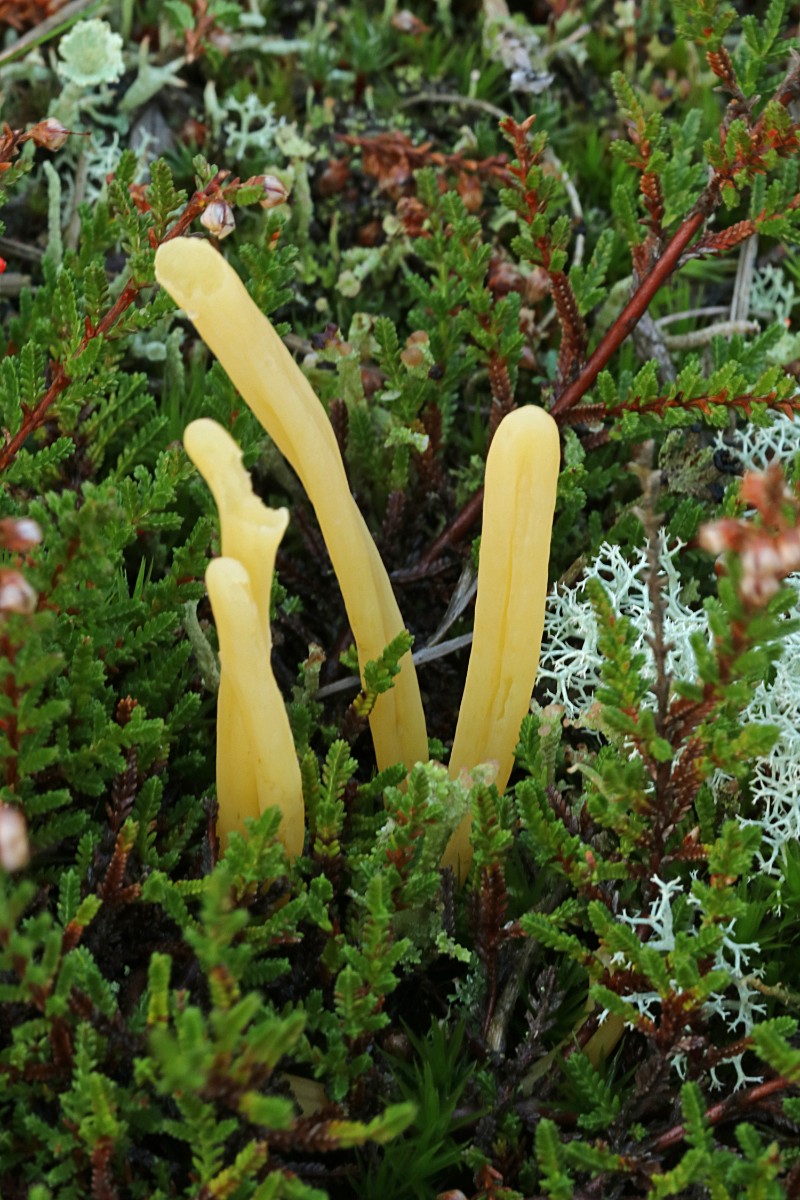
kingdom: Fungi
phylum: Basidiomycota
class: Agaricomycetes
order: Agaricales
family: Clavariaceae
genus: Clavaria
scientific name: Clavaria argillacea
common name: lerfarvet køllesvamp
